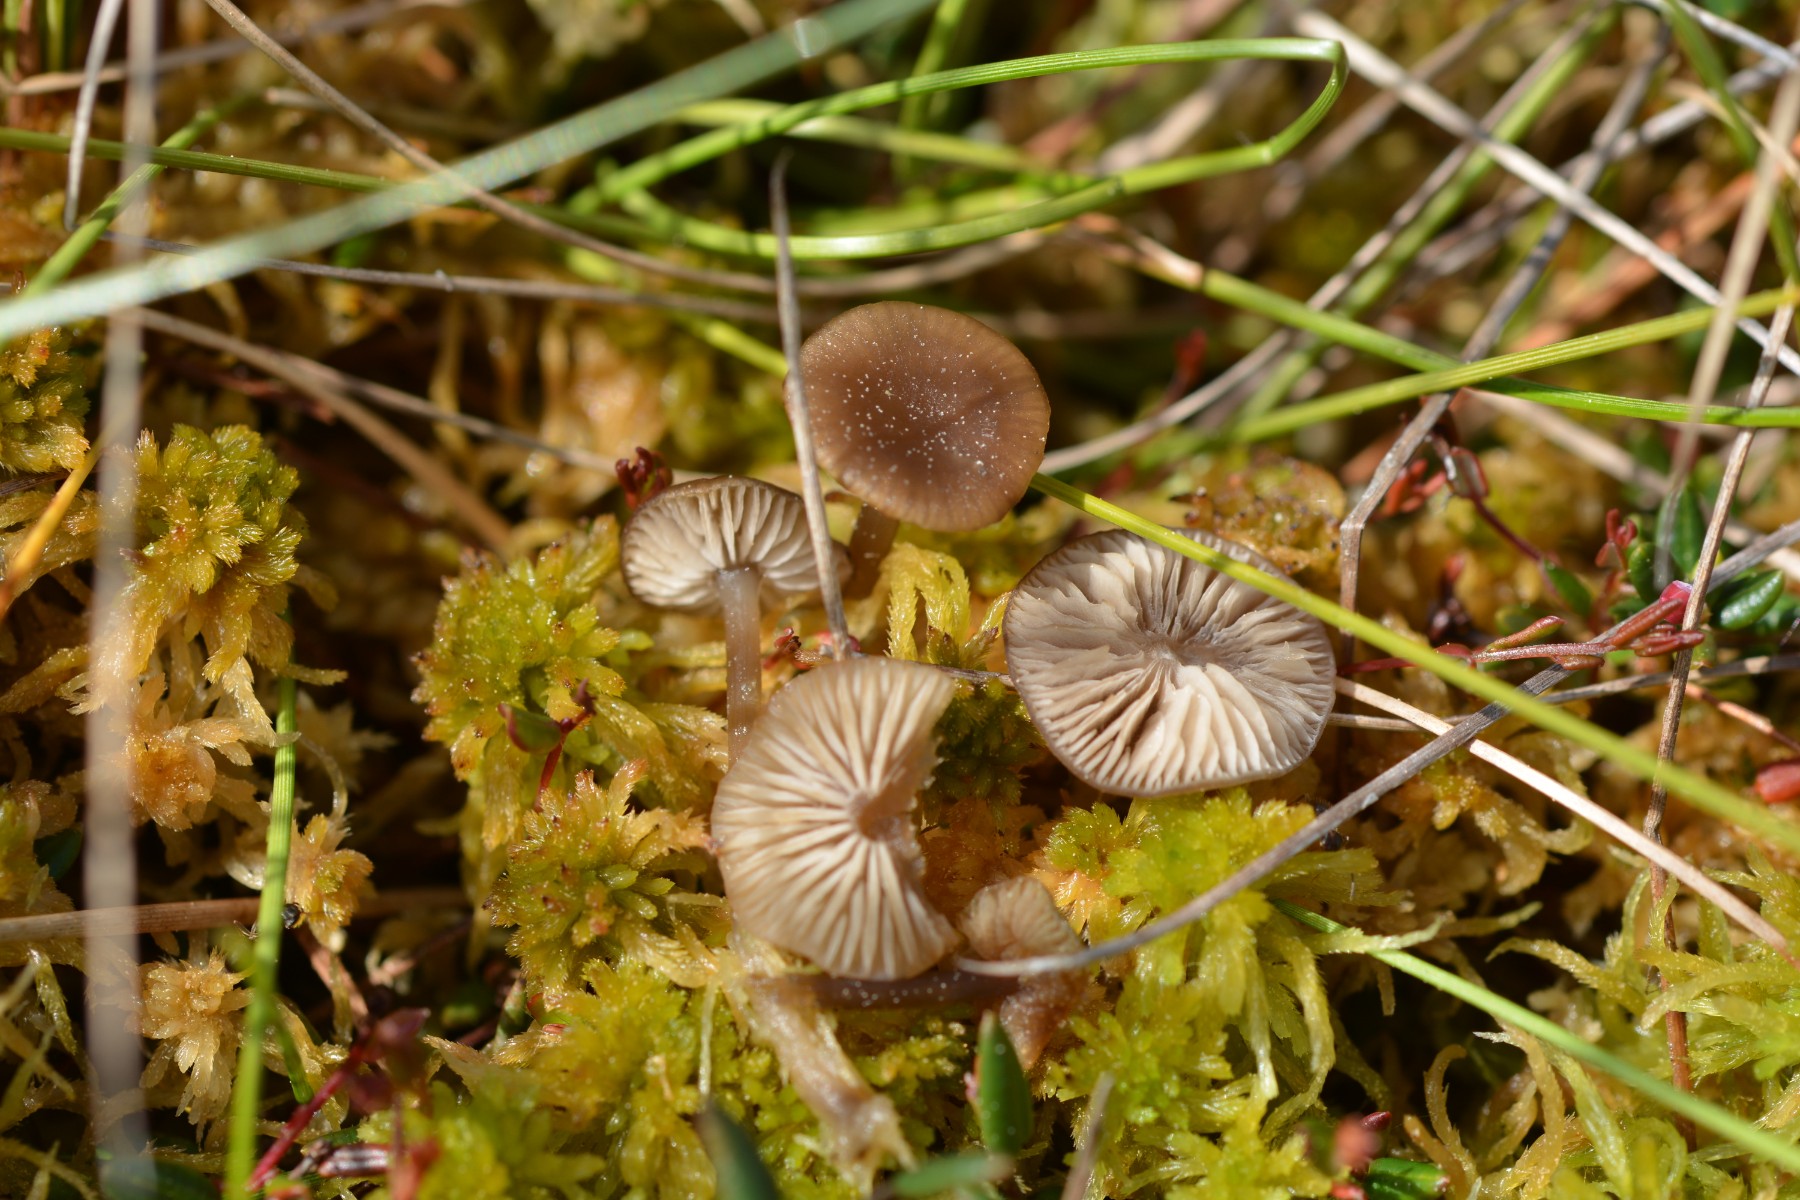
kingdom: Fungi
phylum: Basidiomycota
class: Agaricomycetes
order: Agaricales
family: Lyophyllaceae
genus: Sphagnurus
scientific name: Sphagnurus paluster
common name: tørvemos-gråblad
